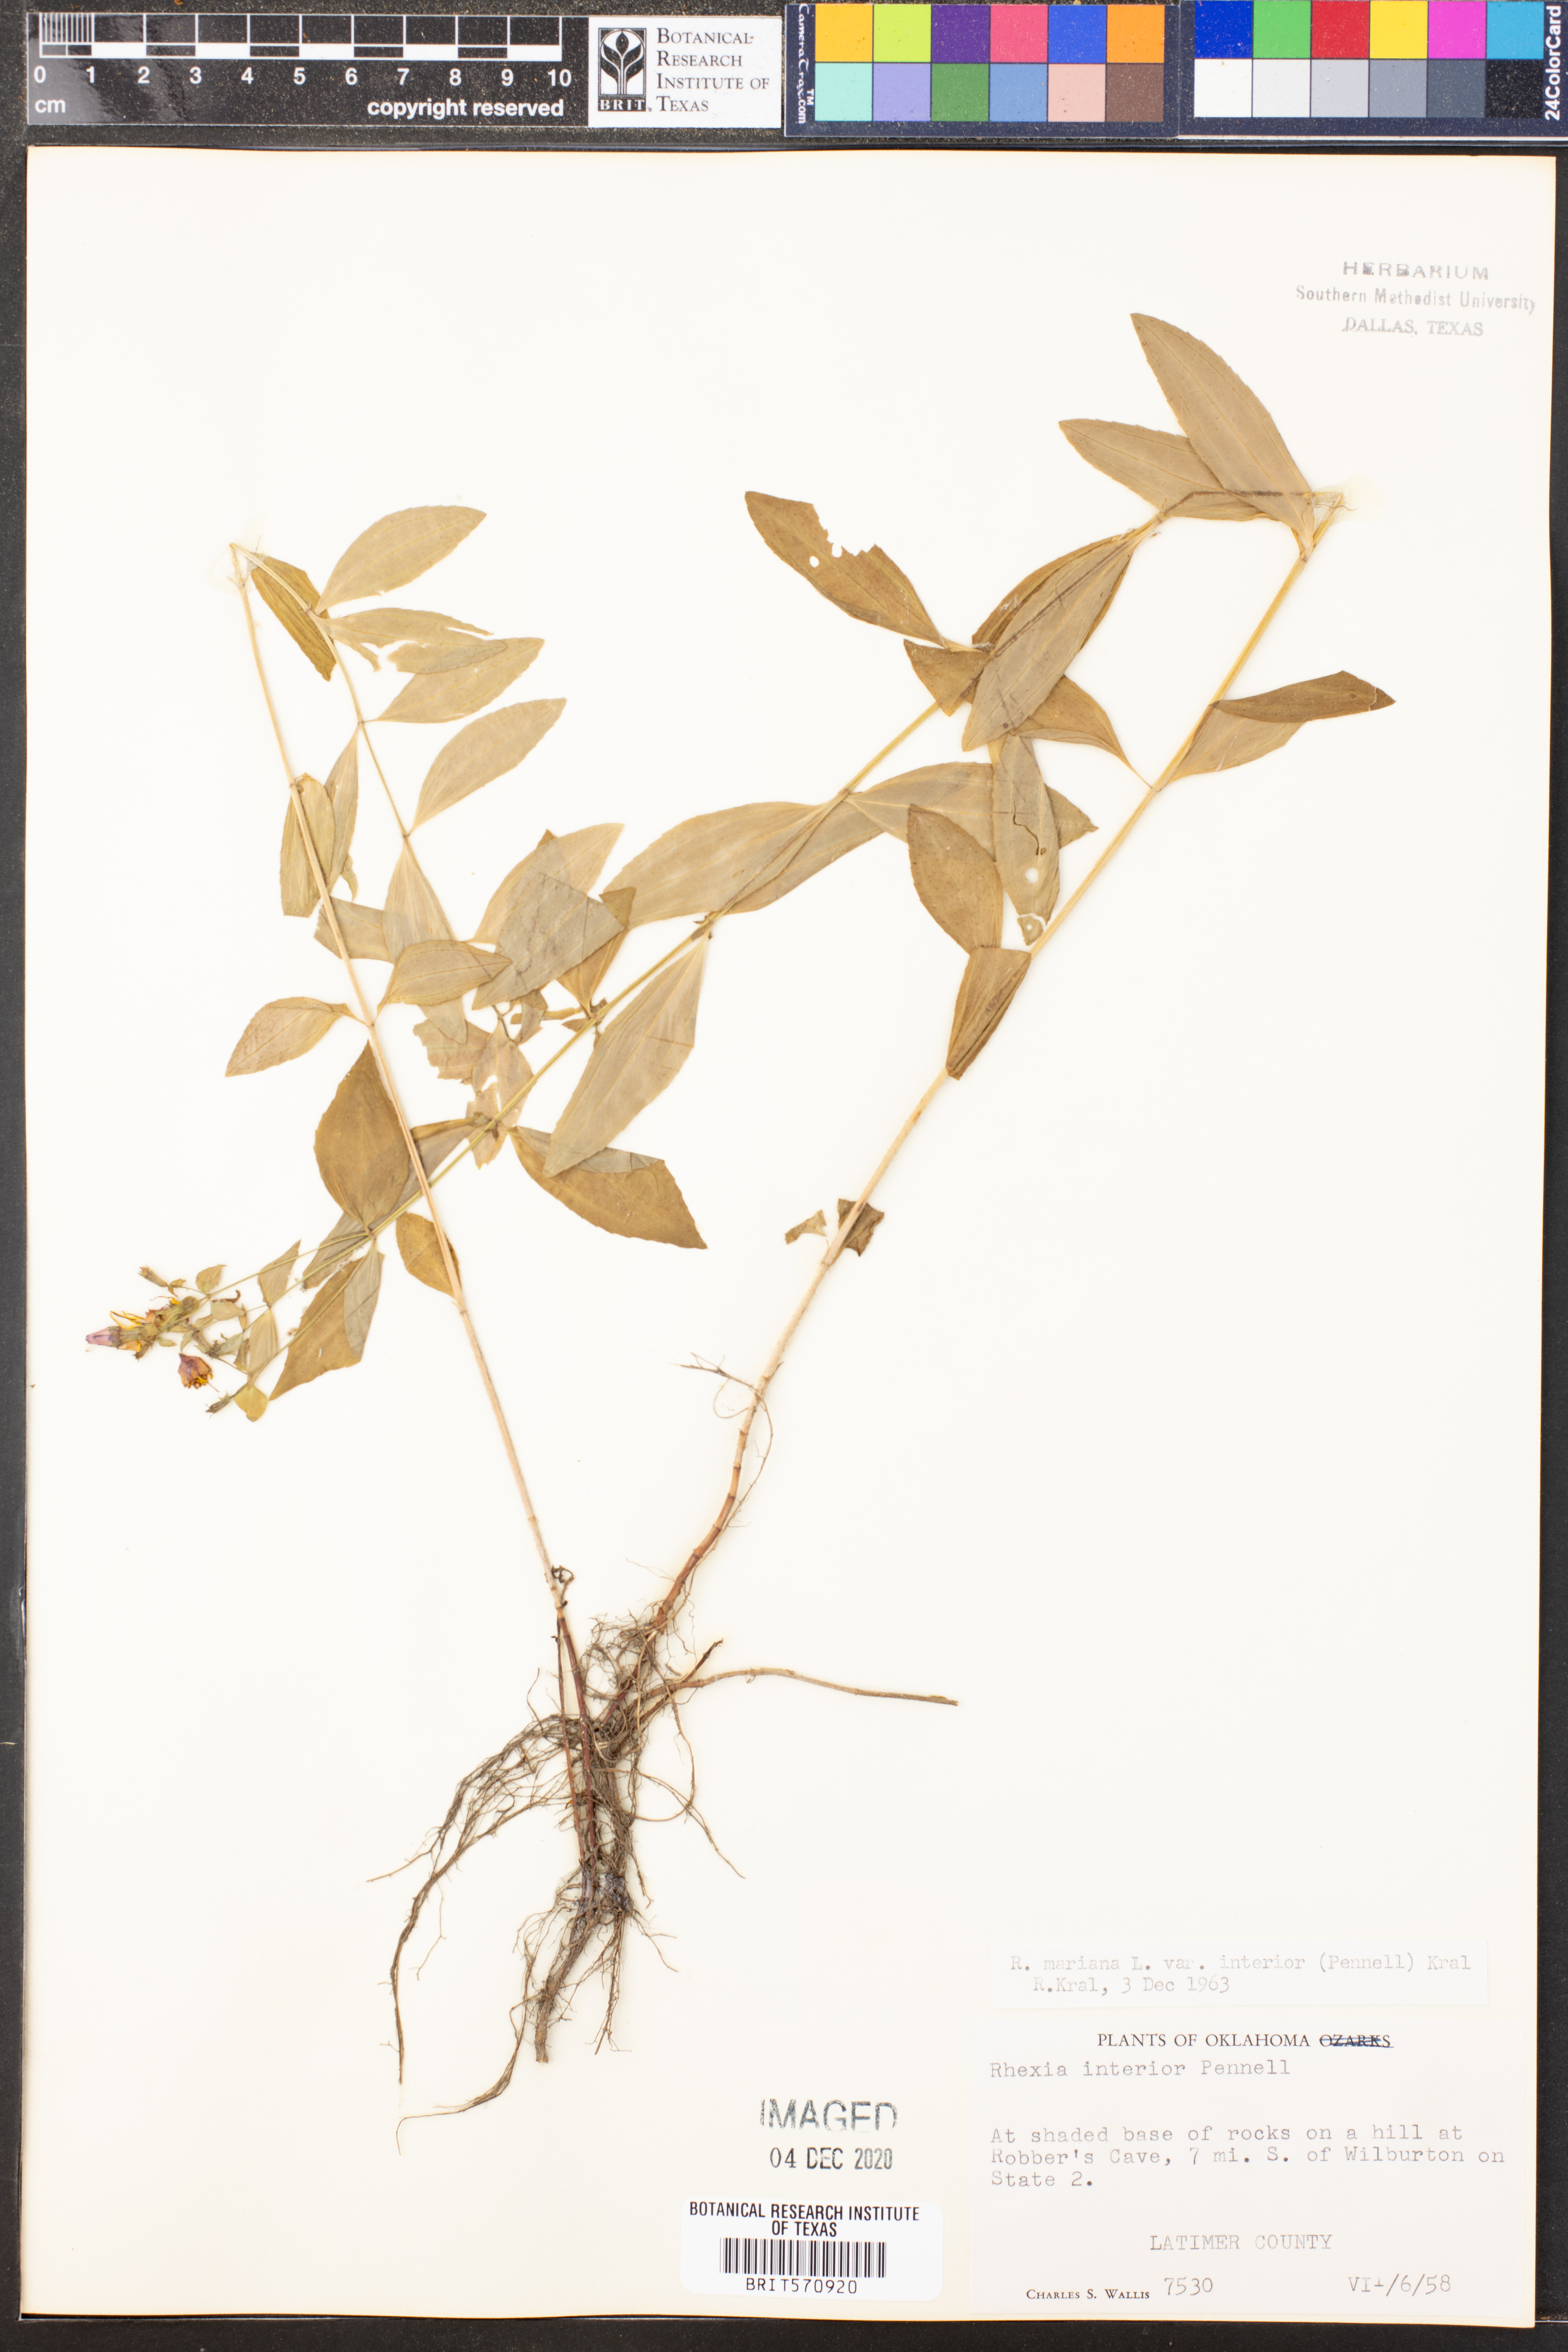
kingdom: Plantae
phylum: Tracheophyta
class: Magnoliopsida
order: Myrtales
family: Melastomataceae
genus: Rhexia
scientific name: Rhexia interior
